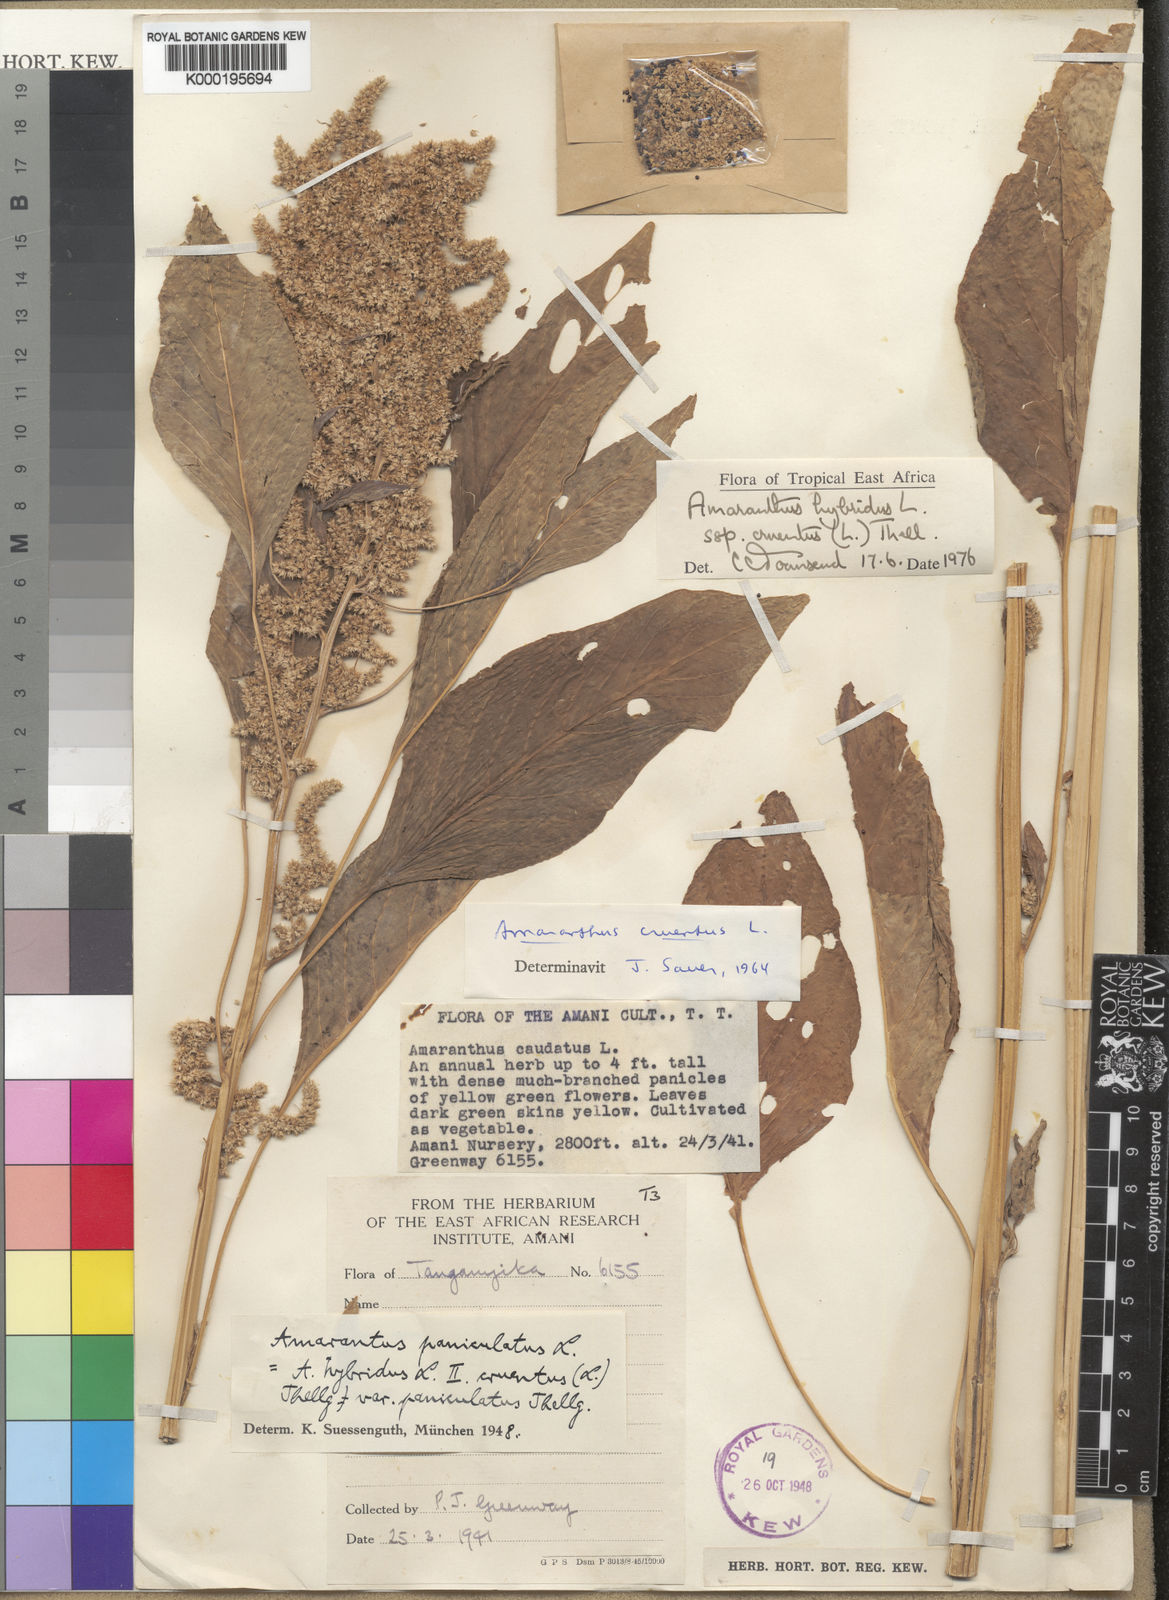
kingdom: Plantae
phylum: Tracheophyta
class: Magnoliopsida
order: Caryophyllales
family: Amaranthaceae
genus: Amaranthus
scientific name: Amaranthus cruentus
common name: Purple amaranth
